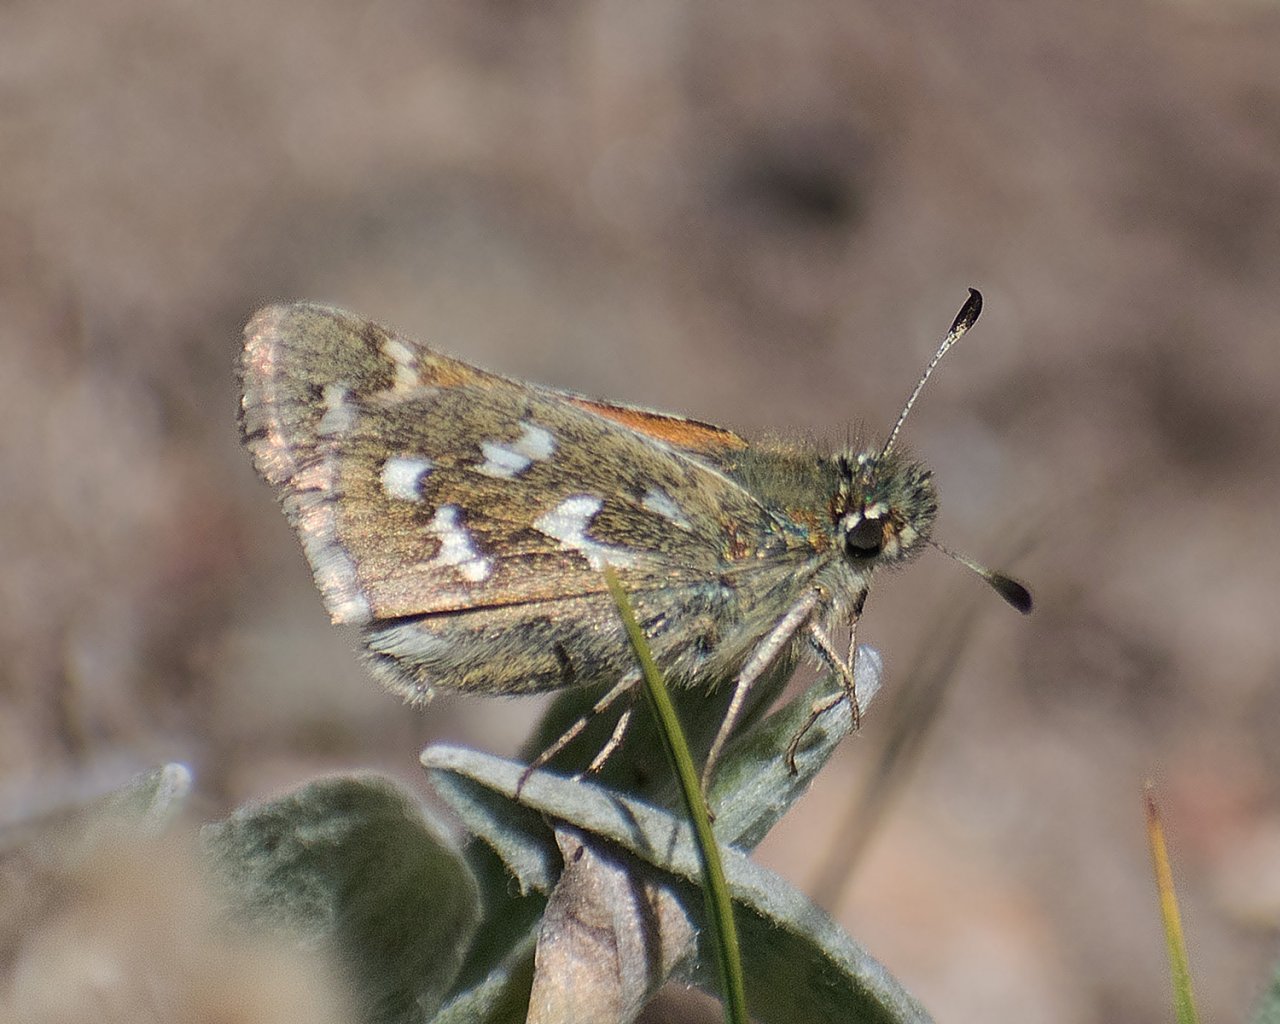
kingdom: Animalia
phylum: Arthropoda
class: Insecta
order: Lepidoptera
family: Hesperiidae
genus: Hesperia
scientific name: Hesperia comma
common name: Common Branded Skipper
